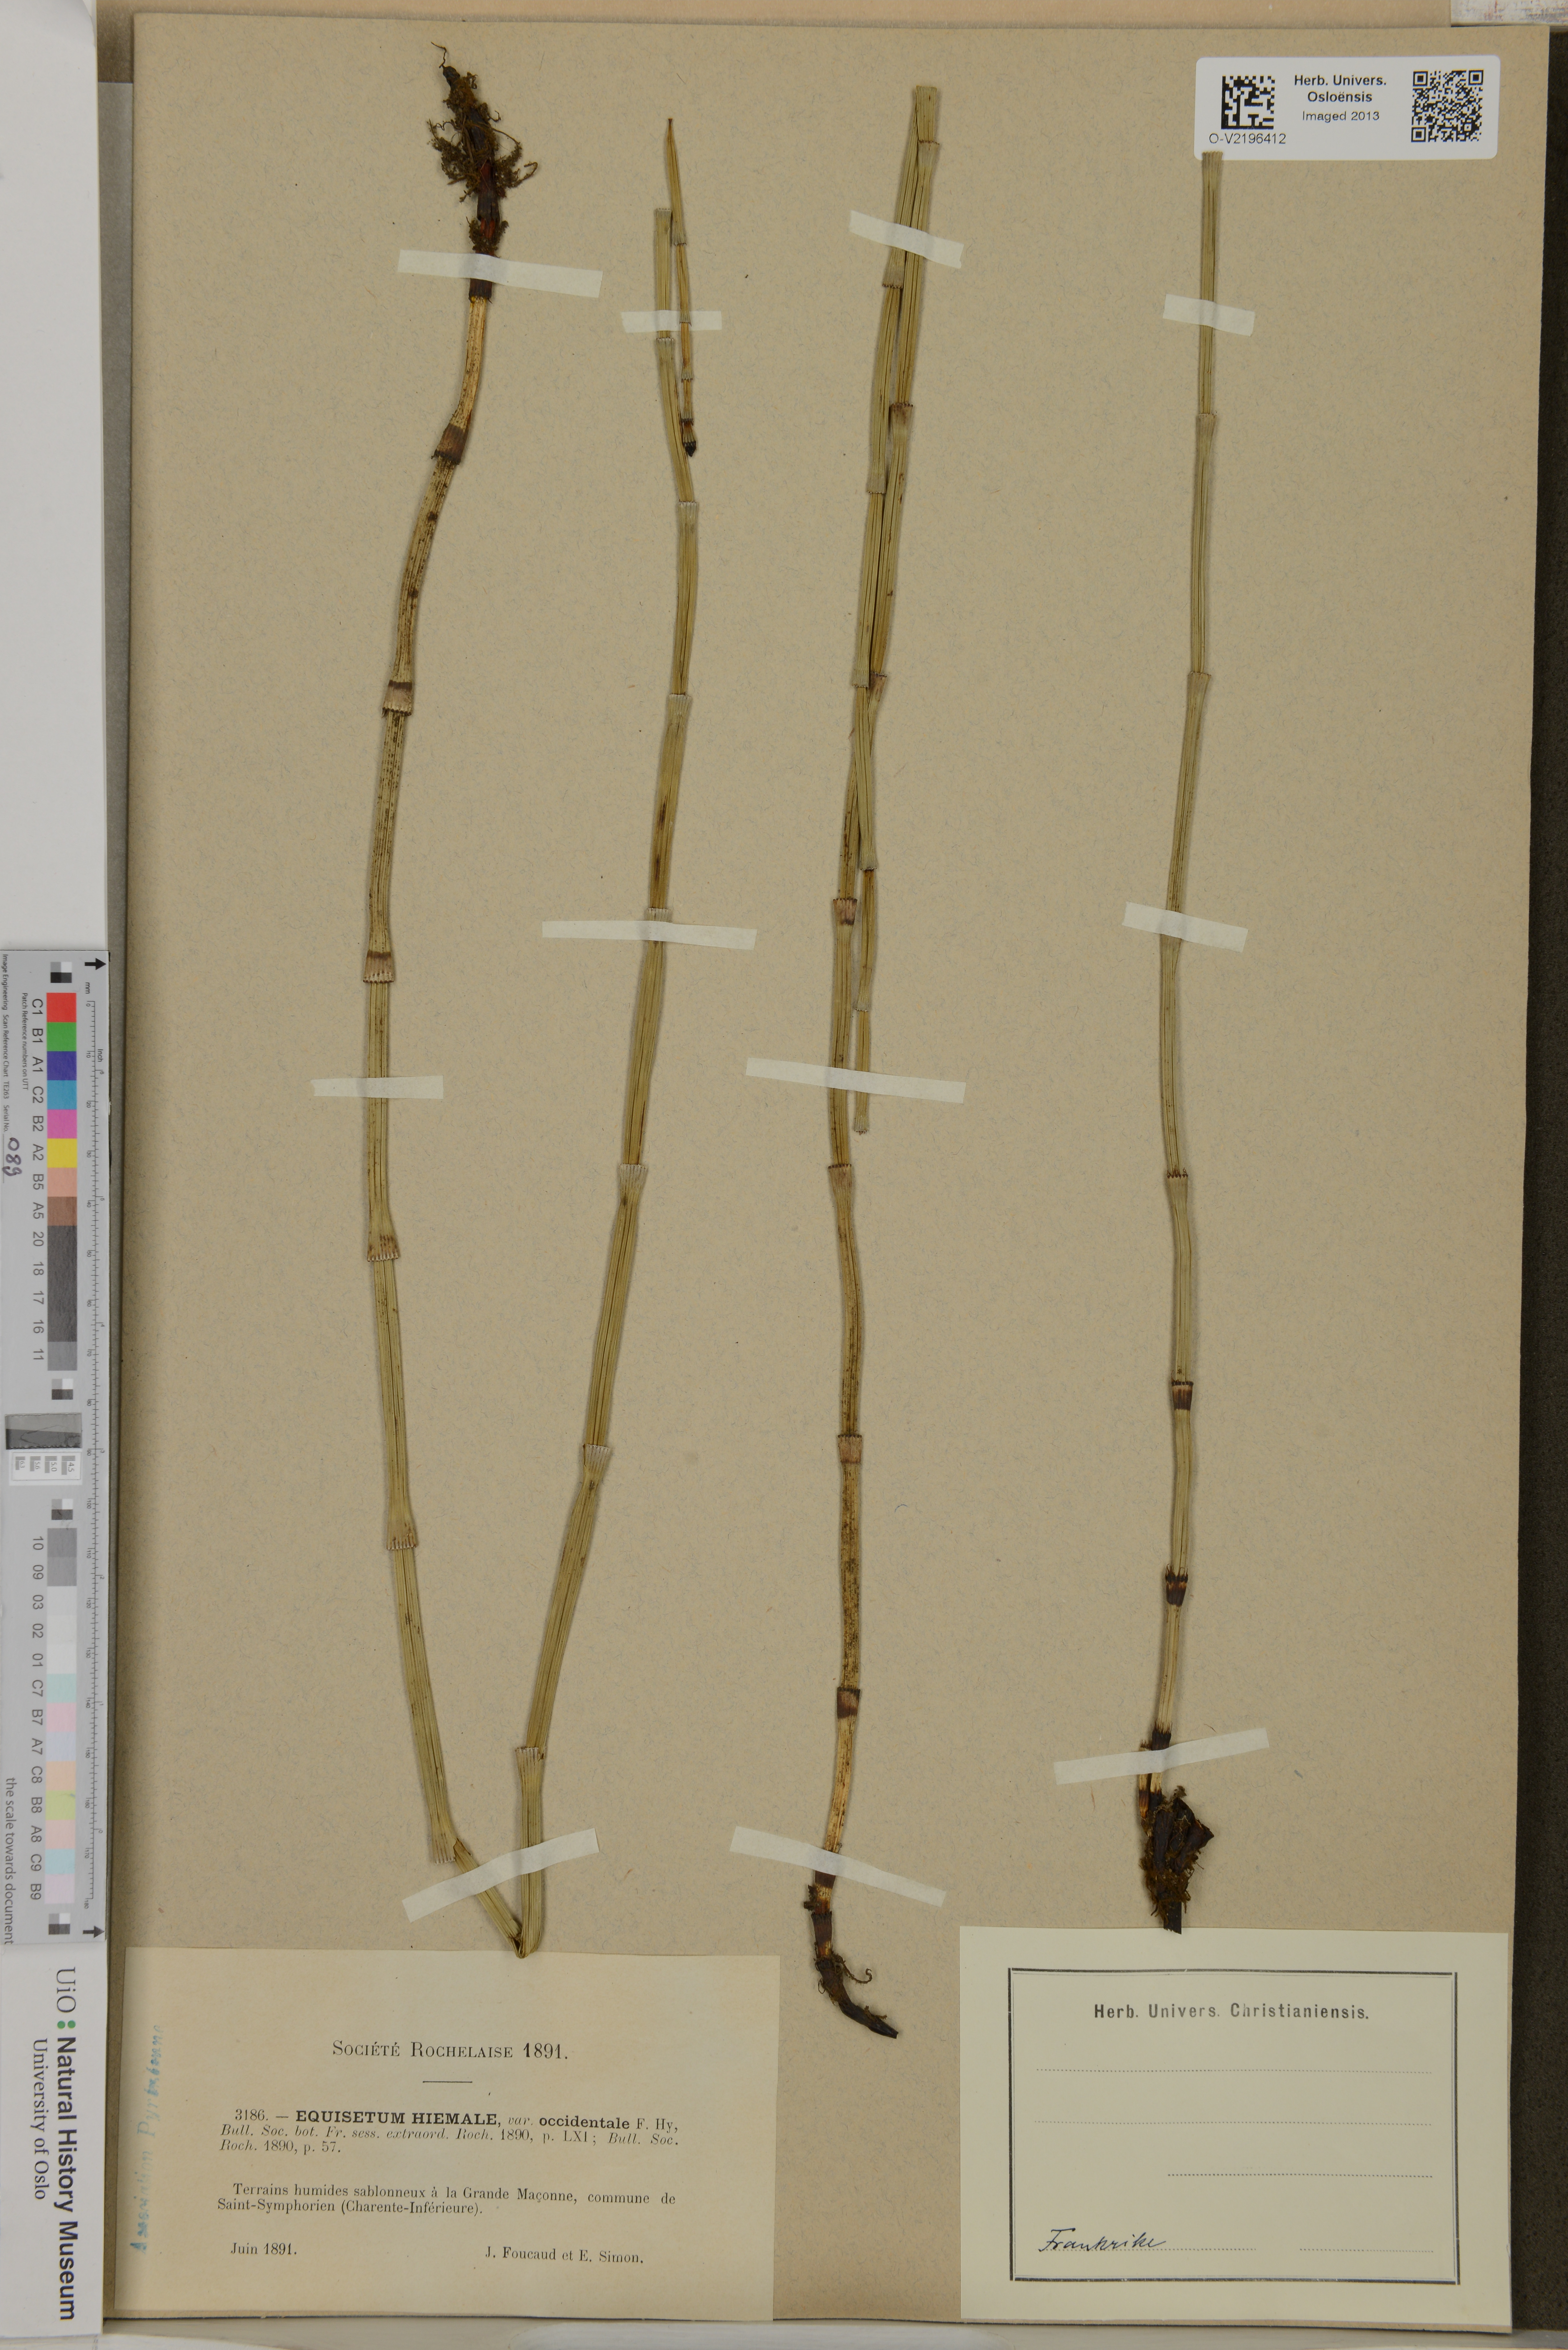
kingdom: Plantae
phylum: Tracheophyta
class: Polypodiopsida
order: Equisetales
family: Equisetaceae
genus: Equisetum
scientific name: Equisetum hyemale
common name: Rough horsetail
